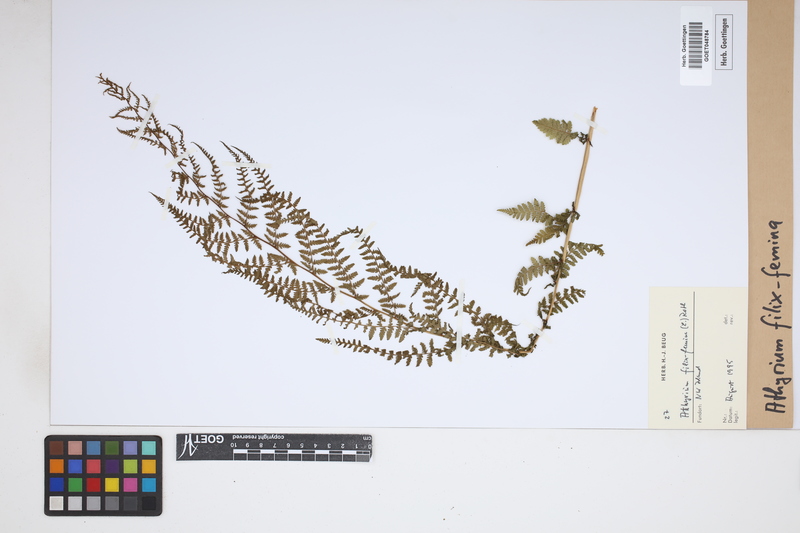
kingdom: Plantae
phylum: Tracheophyta
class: Polypodiopsida
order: Polypodiales
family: Athyriaceae
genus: Athyrium
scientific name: Athyrium filix-femina
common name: Lady fern
